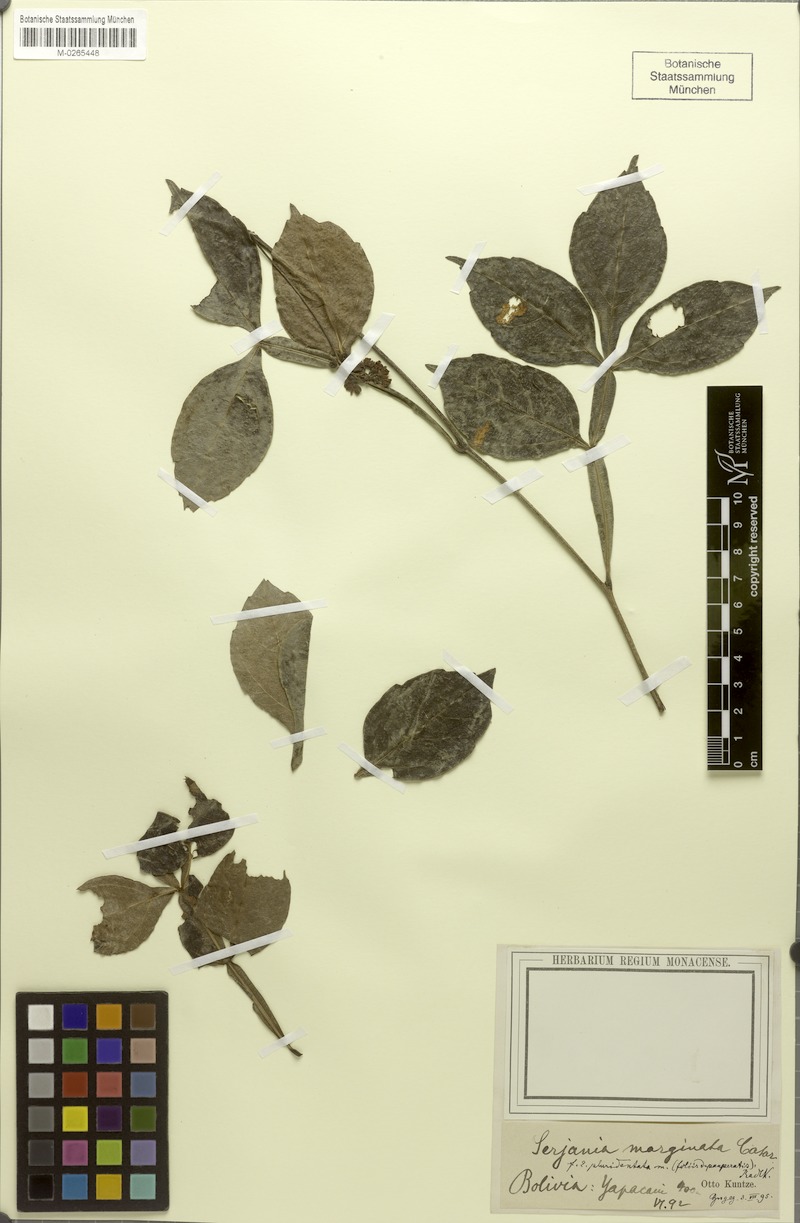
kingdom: Plantae
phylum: Tracheophyta
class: Magnoliopsida
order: Sapindales
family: Sapindaceae
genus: Serjania
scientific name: Serjania marginata
